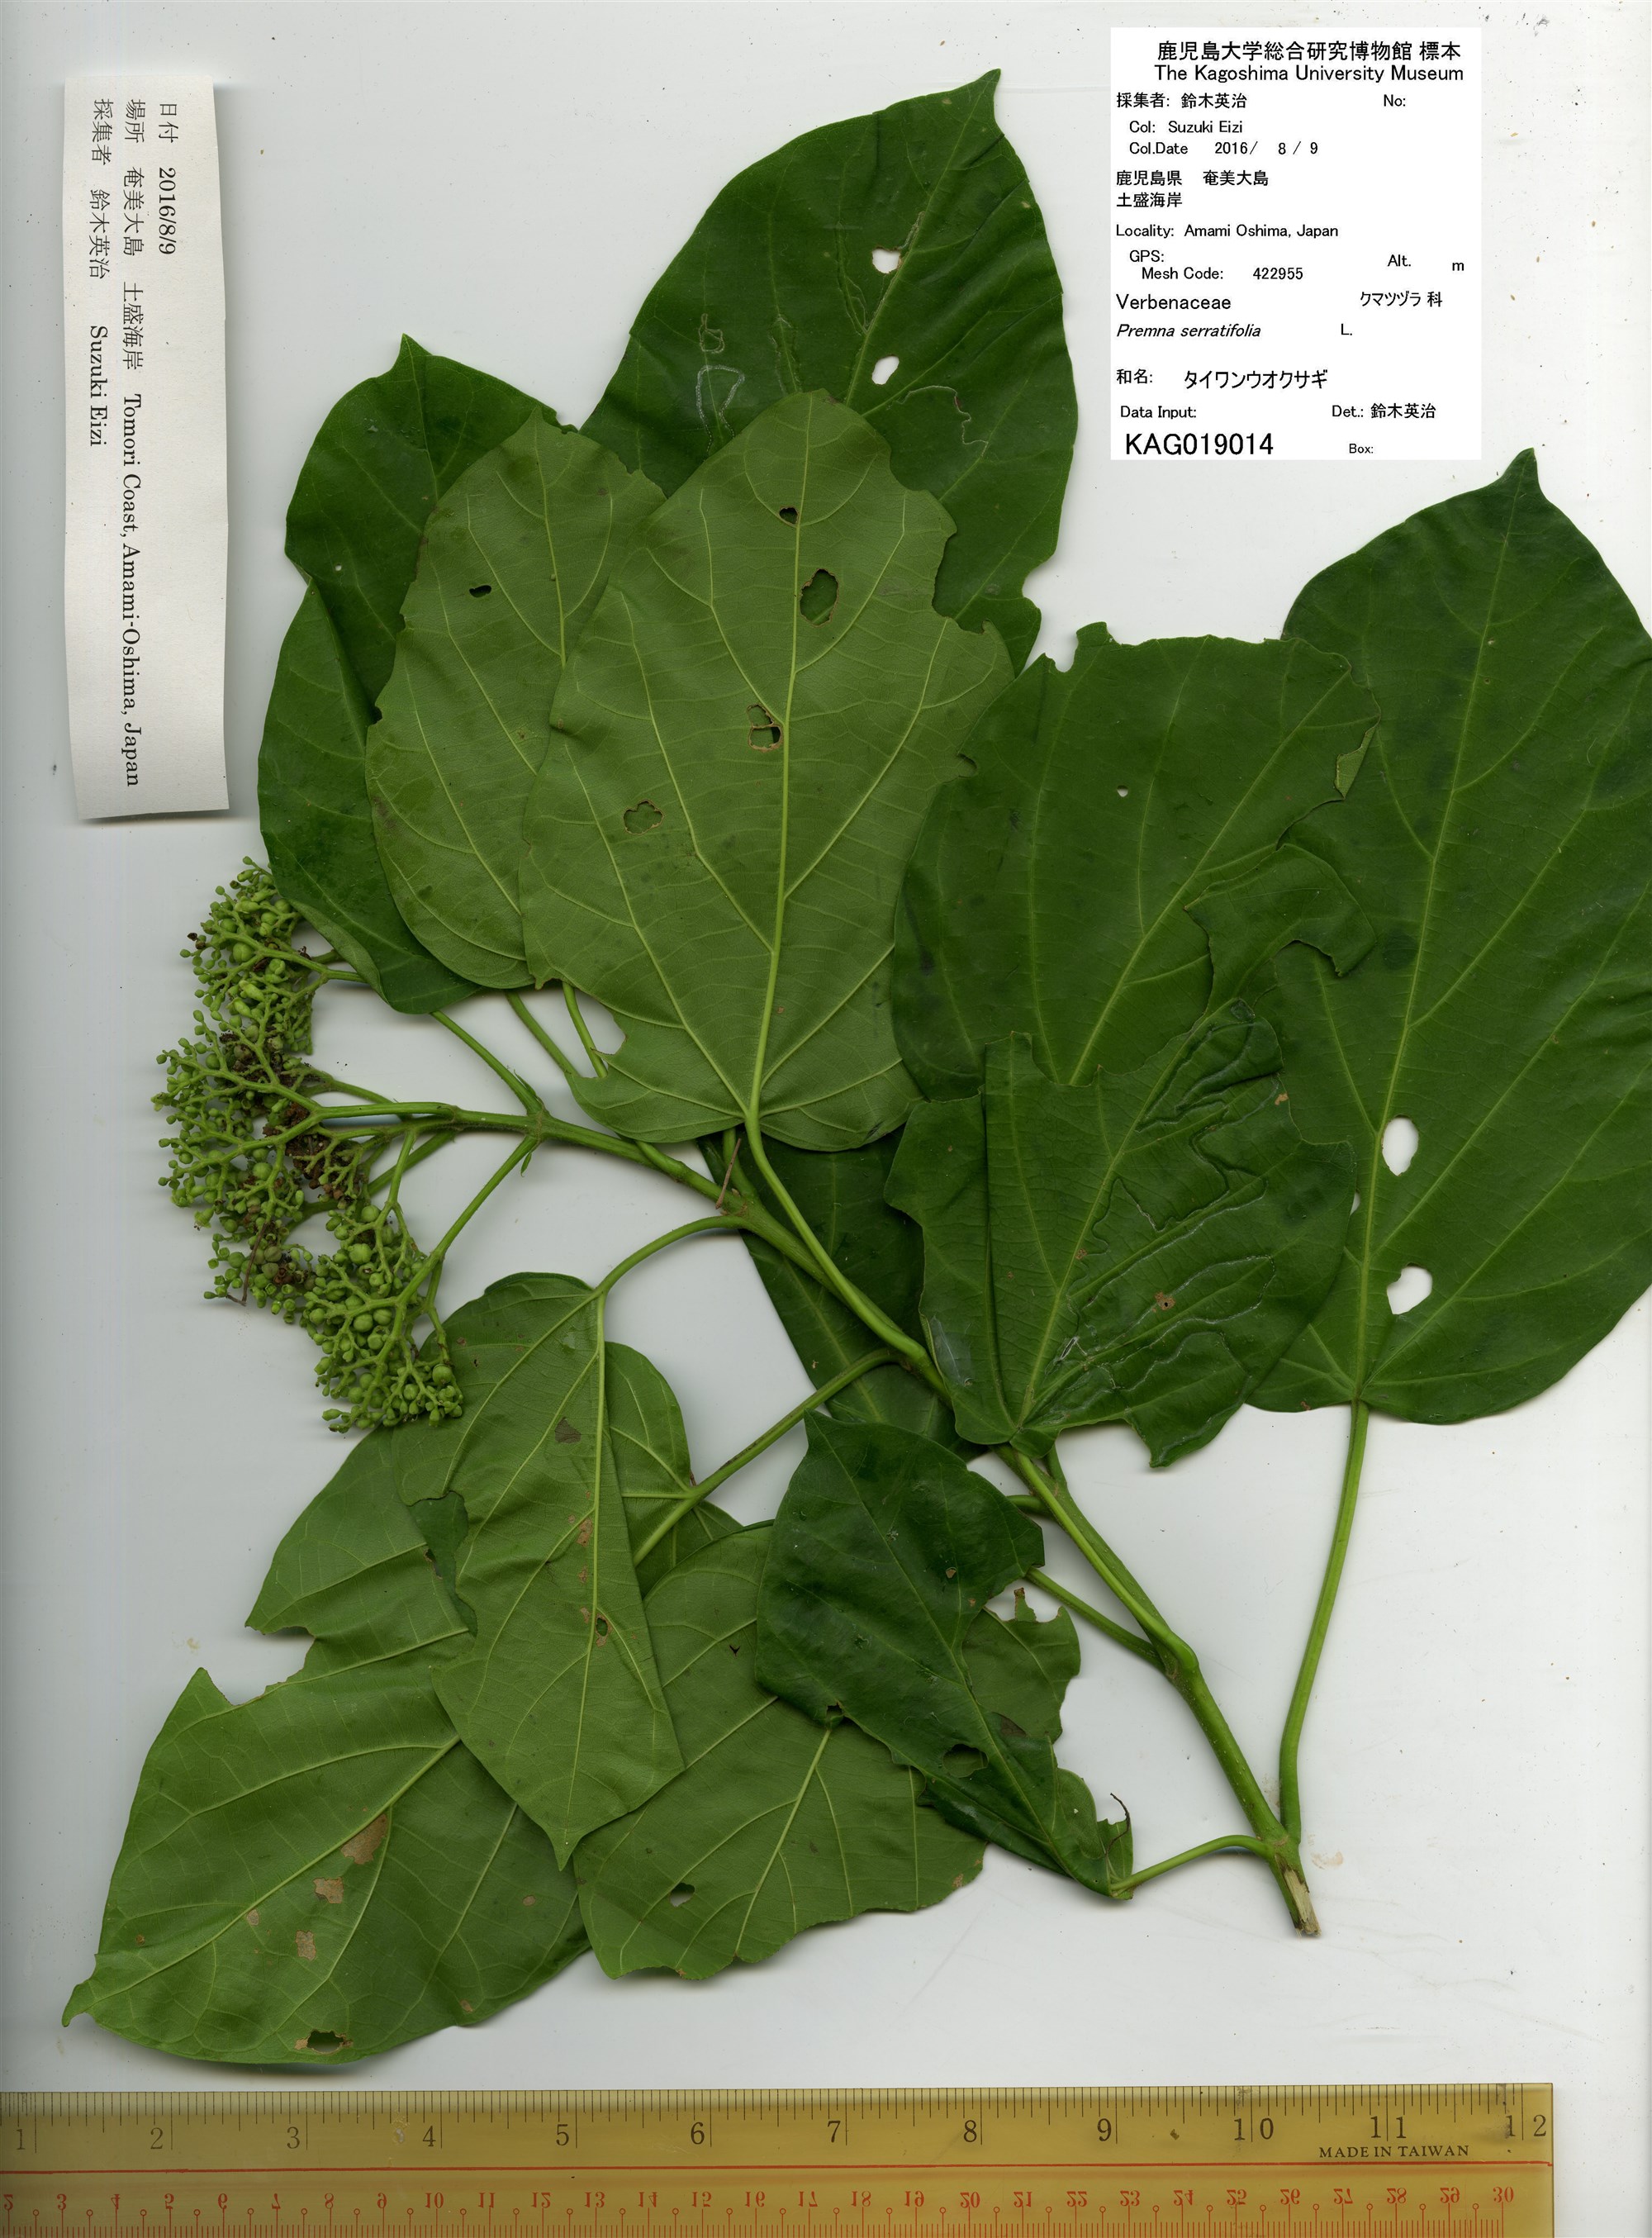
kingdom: Plantae
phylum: Tracheophyta
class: Magnoliopsida
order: Lamiales
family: Lamiaceae
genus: Premna
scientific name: Premna serratifolia
